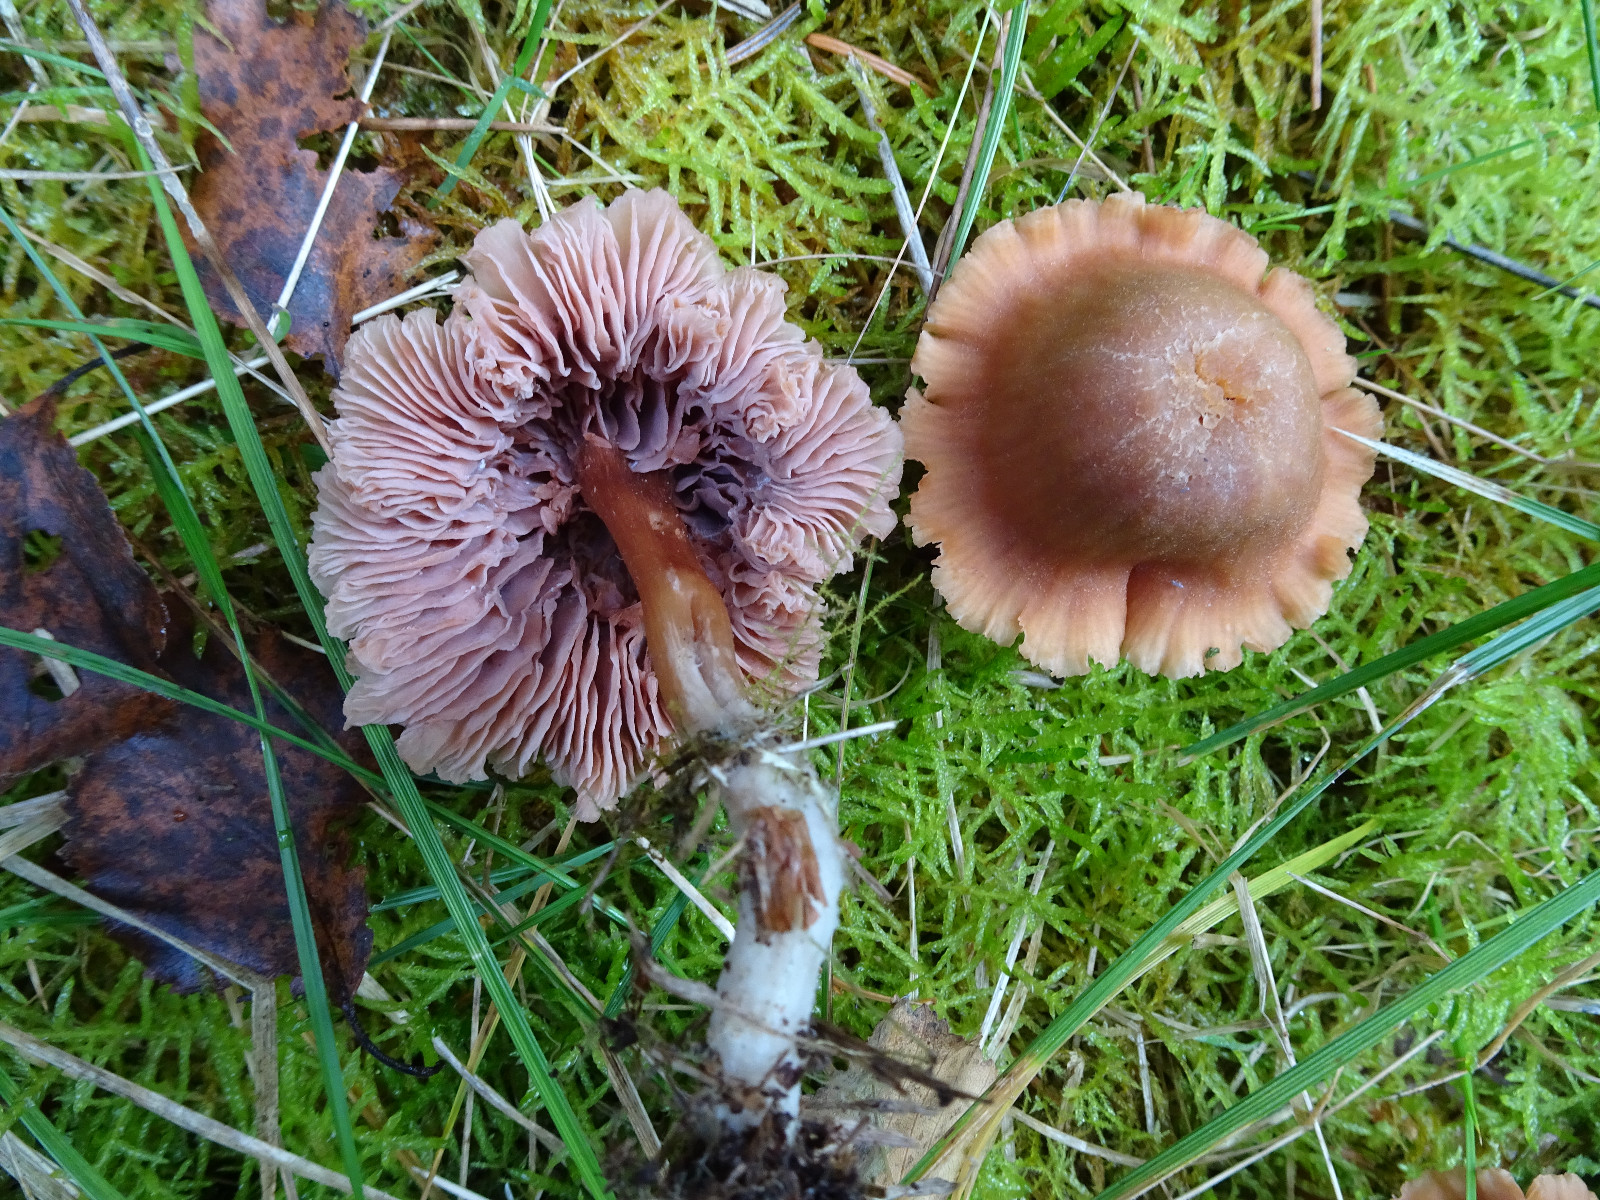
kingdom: Fungi
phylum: Basidiomycota
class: Agaricomycetes
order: Agaricales
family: Hydnangiaceae
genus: Laccaria
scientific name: Laccaria bicolor
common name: tvefarvet ametysthat
